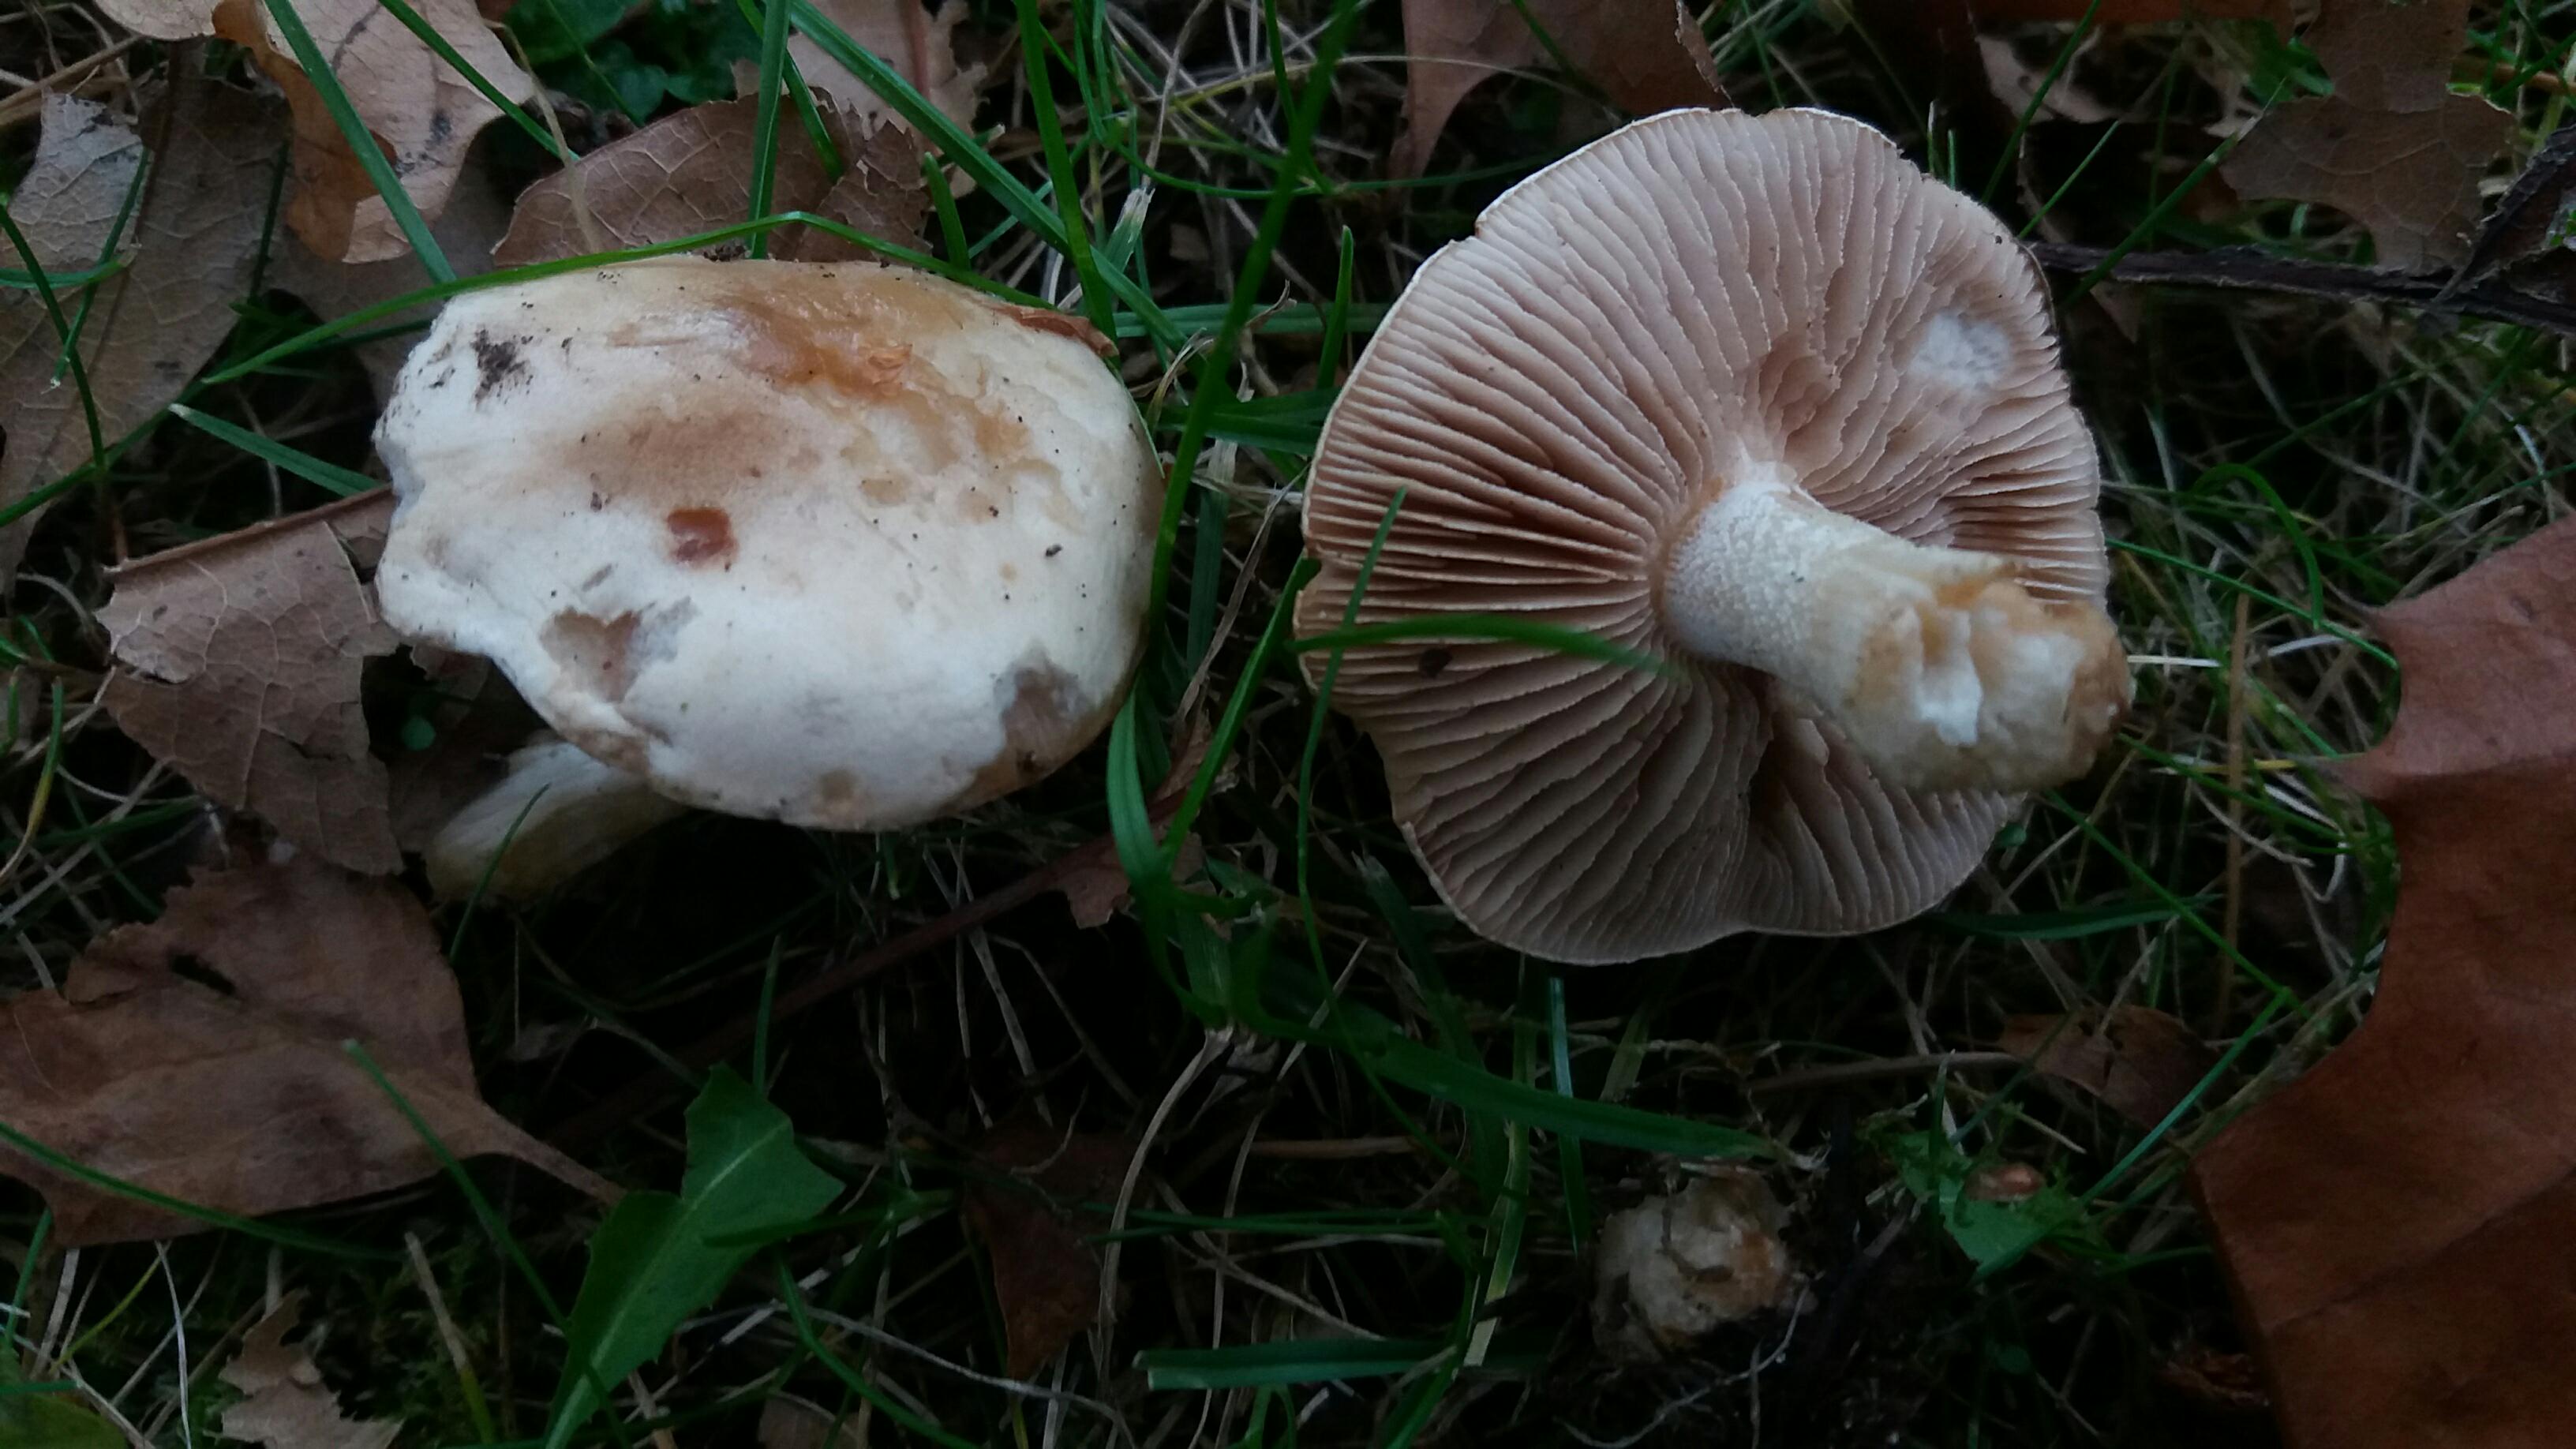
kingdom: Fungi
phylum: Basidiomycota
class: Agaricomycetes
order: Agaricales
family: Hymenogastraceae
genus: Hebeloma
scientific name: Hebeloma
